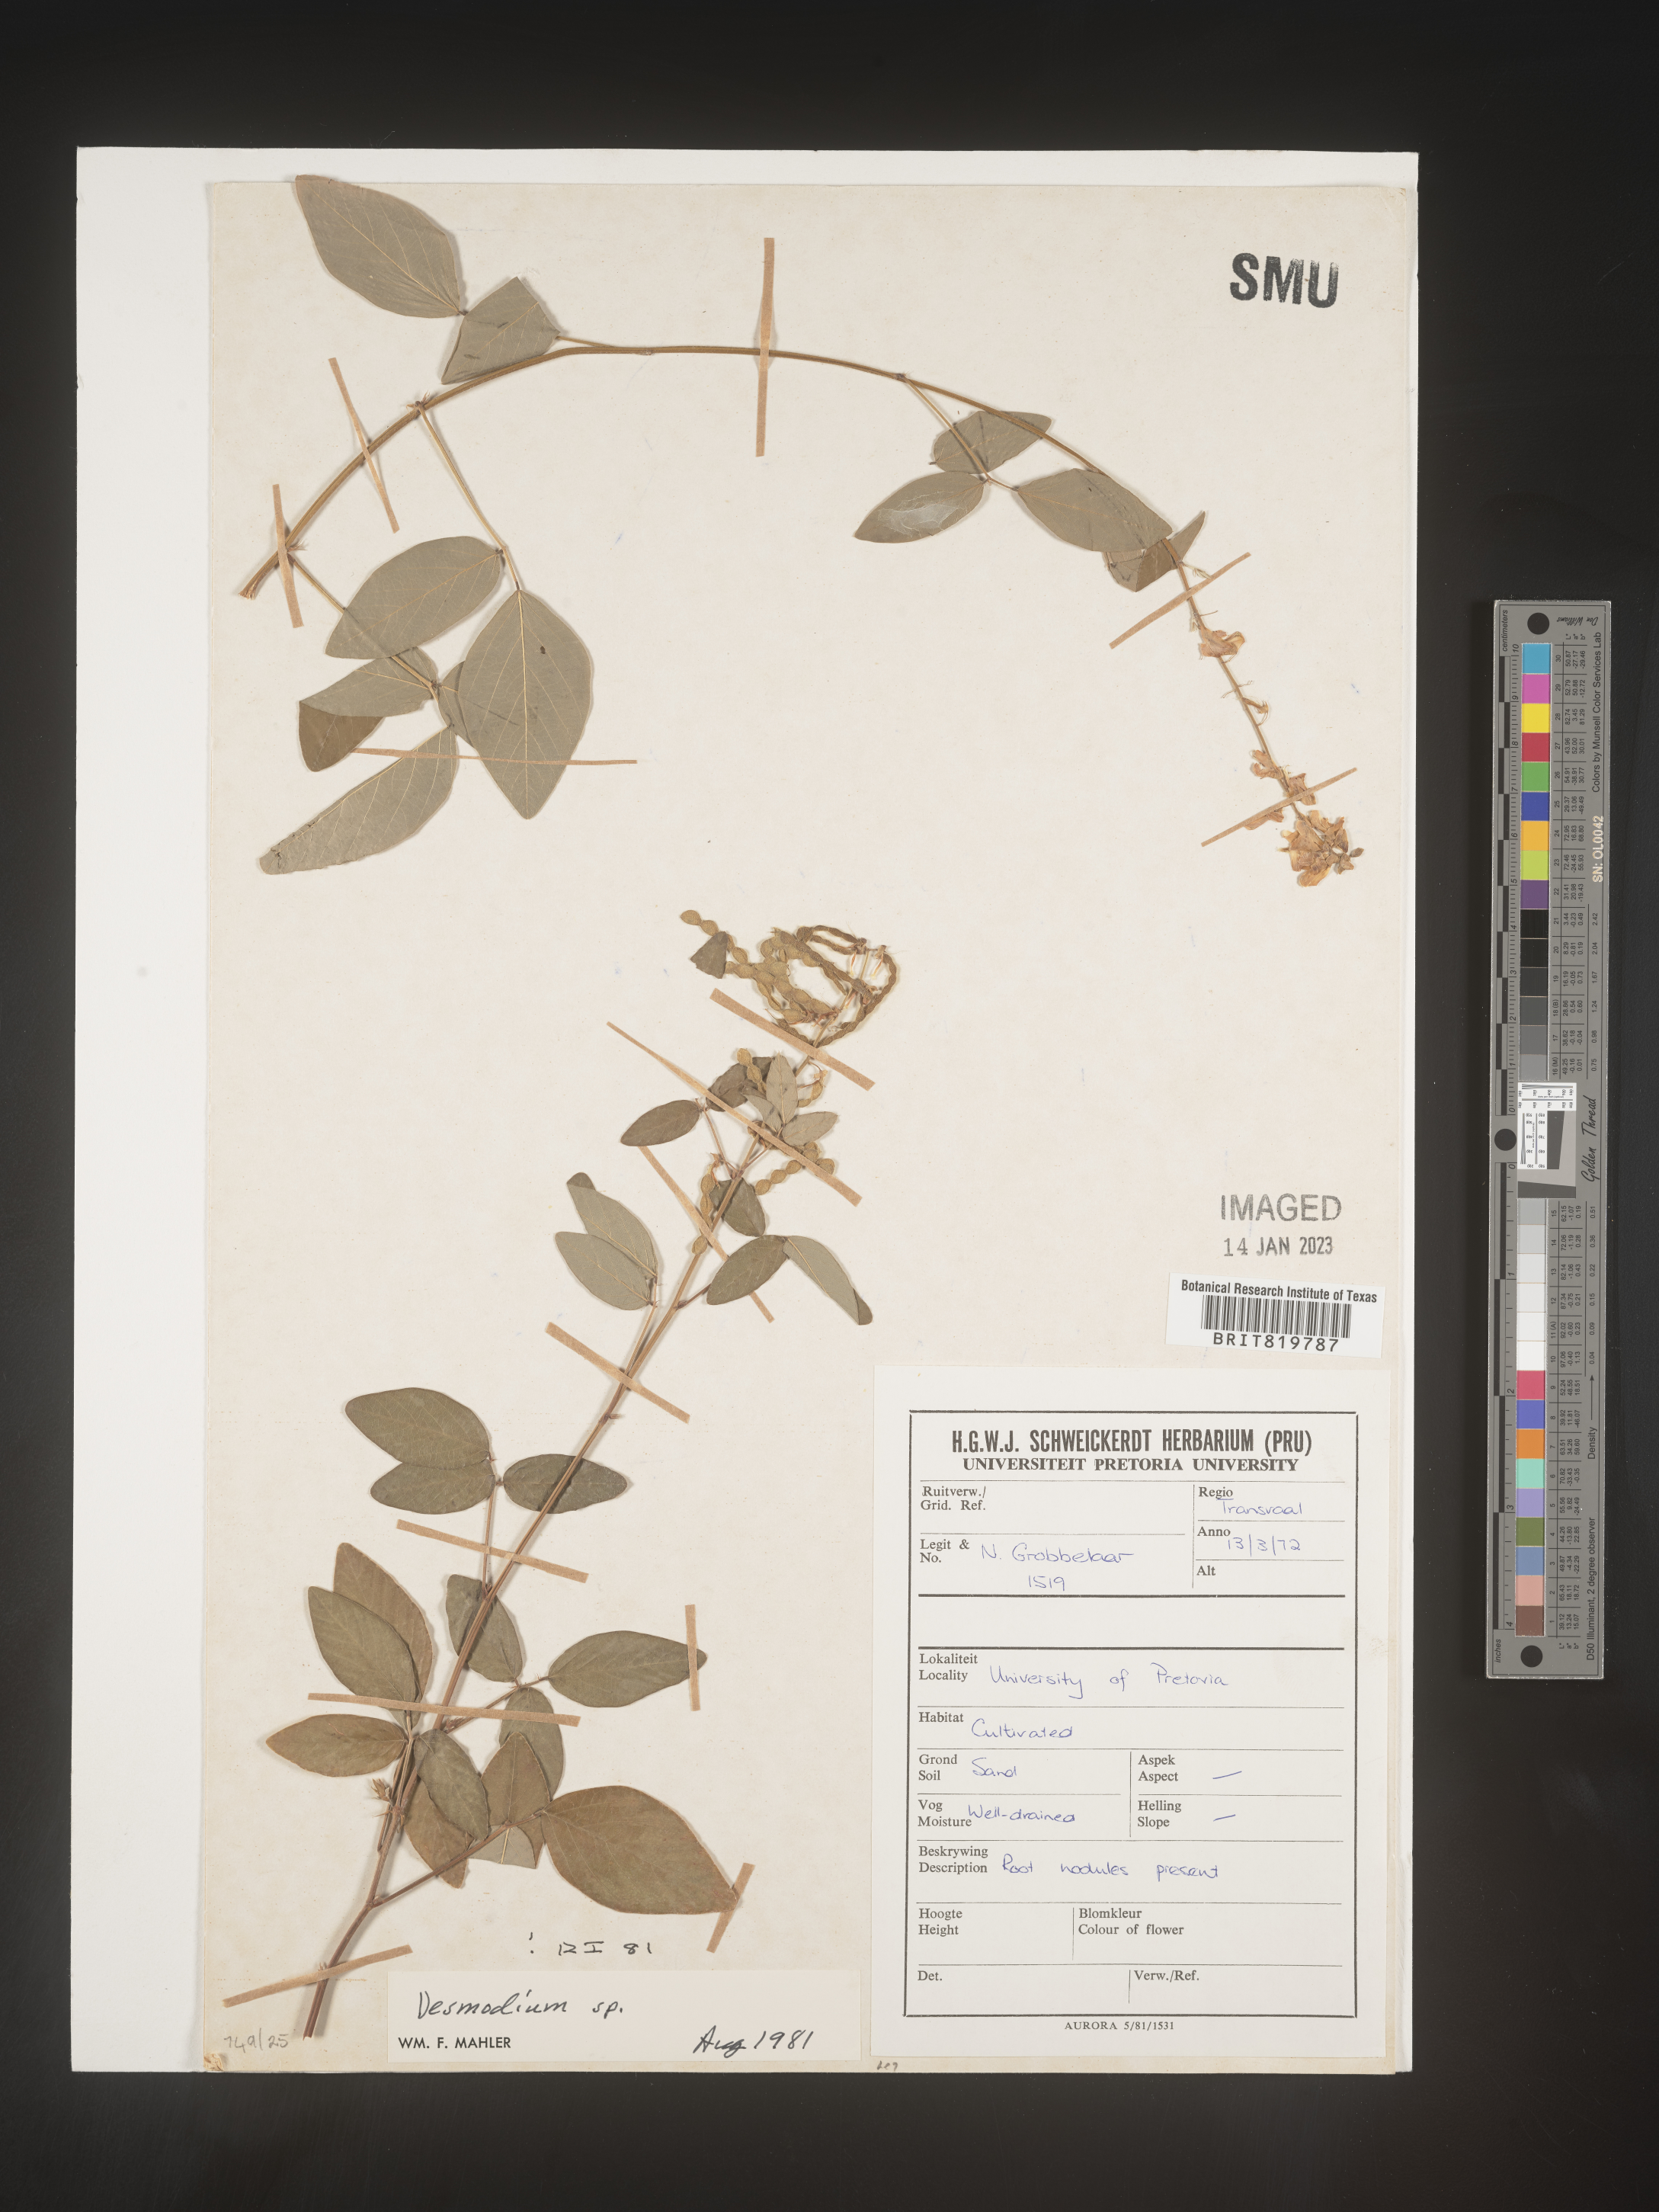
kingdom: Plantae
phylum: Tracheophyta
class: Magnoliopsida
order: Fabales
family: Fabaceae
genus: Desmodium
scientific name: Desmodium
